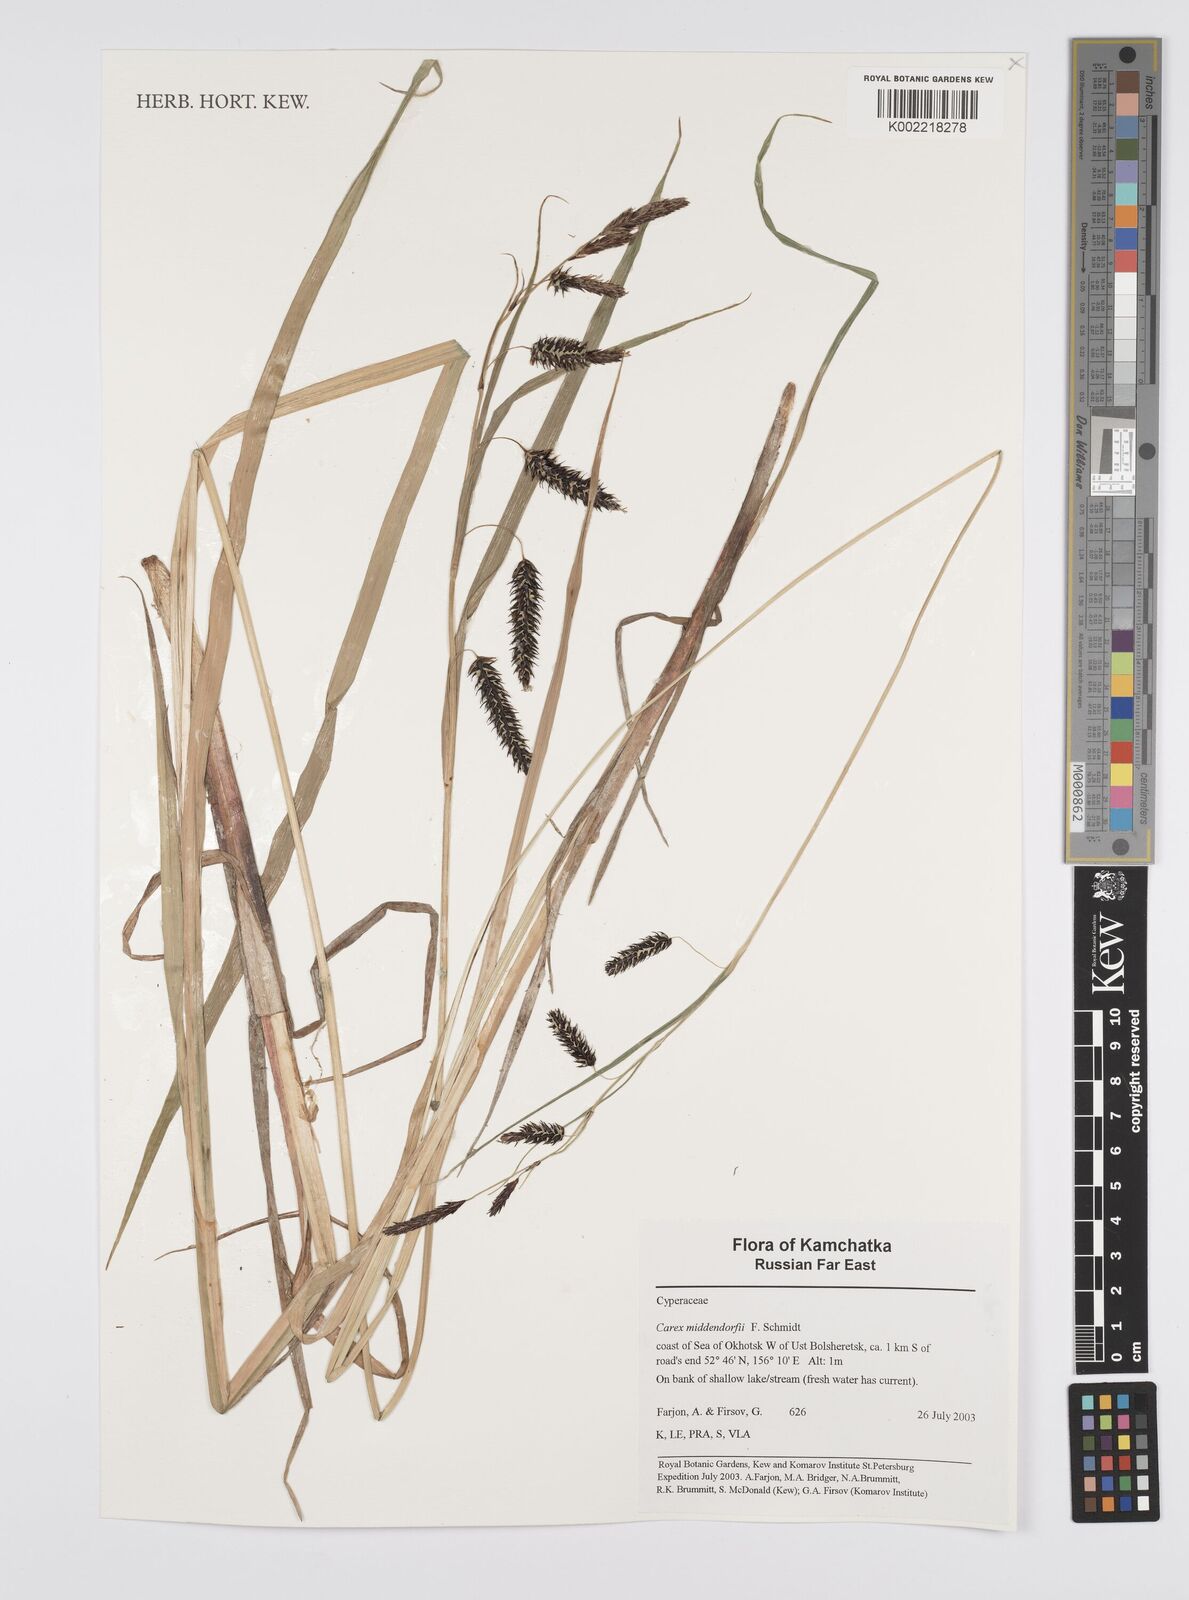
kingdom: Plantae
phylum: Tracheophyta
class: Liliopsida
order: Poales
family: Cyperaceae
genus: Carex
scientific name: Carex middendorffii
